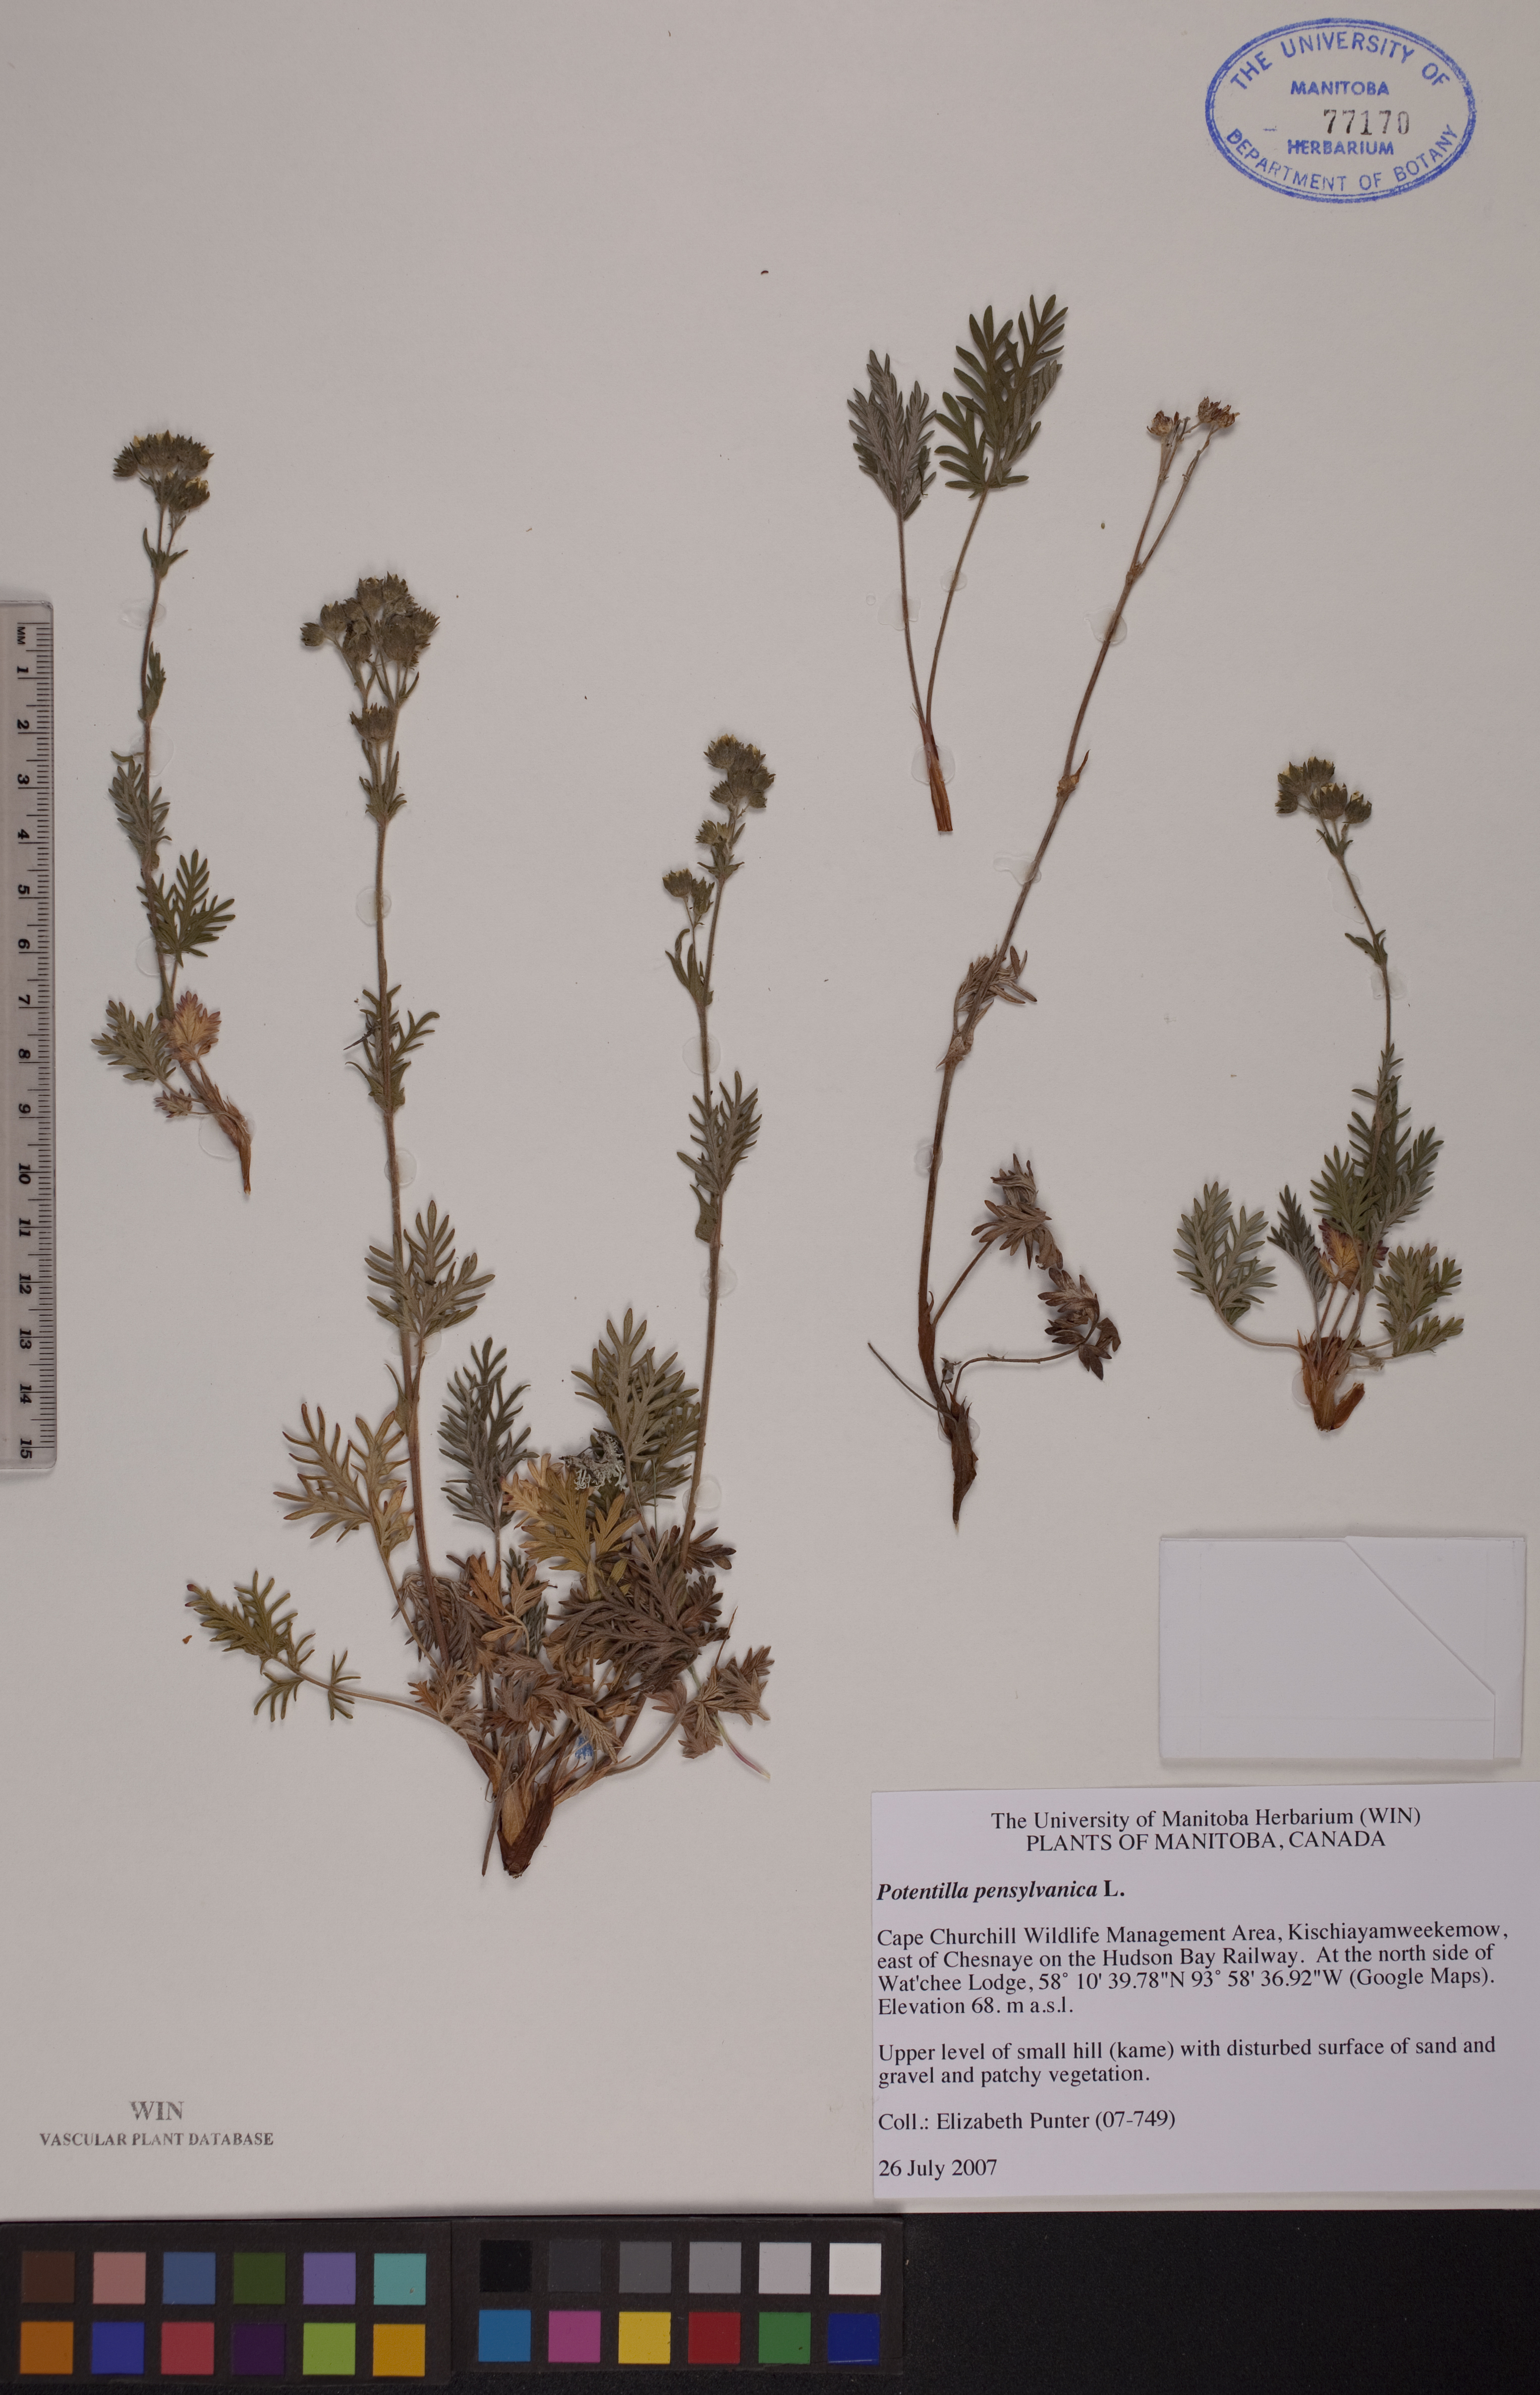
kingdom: Plantae
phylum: Tracheophyta
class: Magnoliopsida
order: Rosales
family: Rosaceae
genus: Potentilla
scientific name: Potentilla pensylvanica
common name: Pennsylvania cinquefoil
